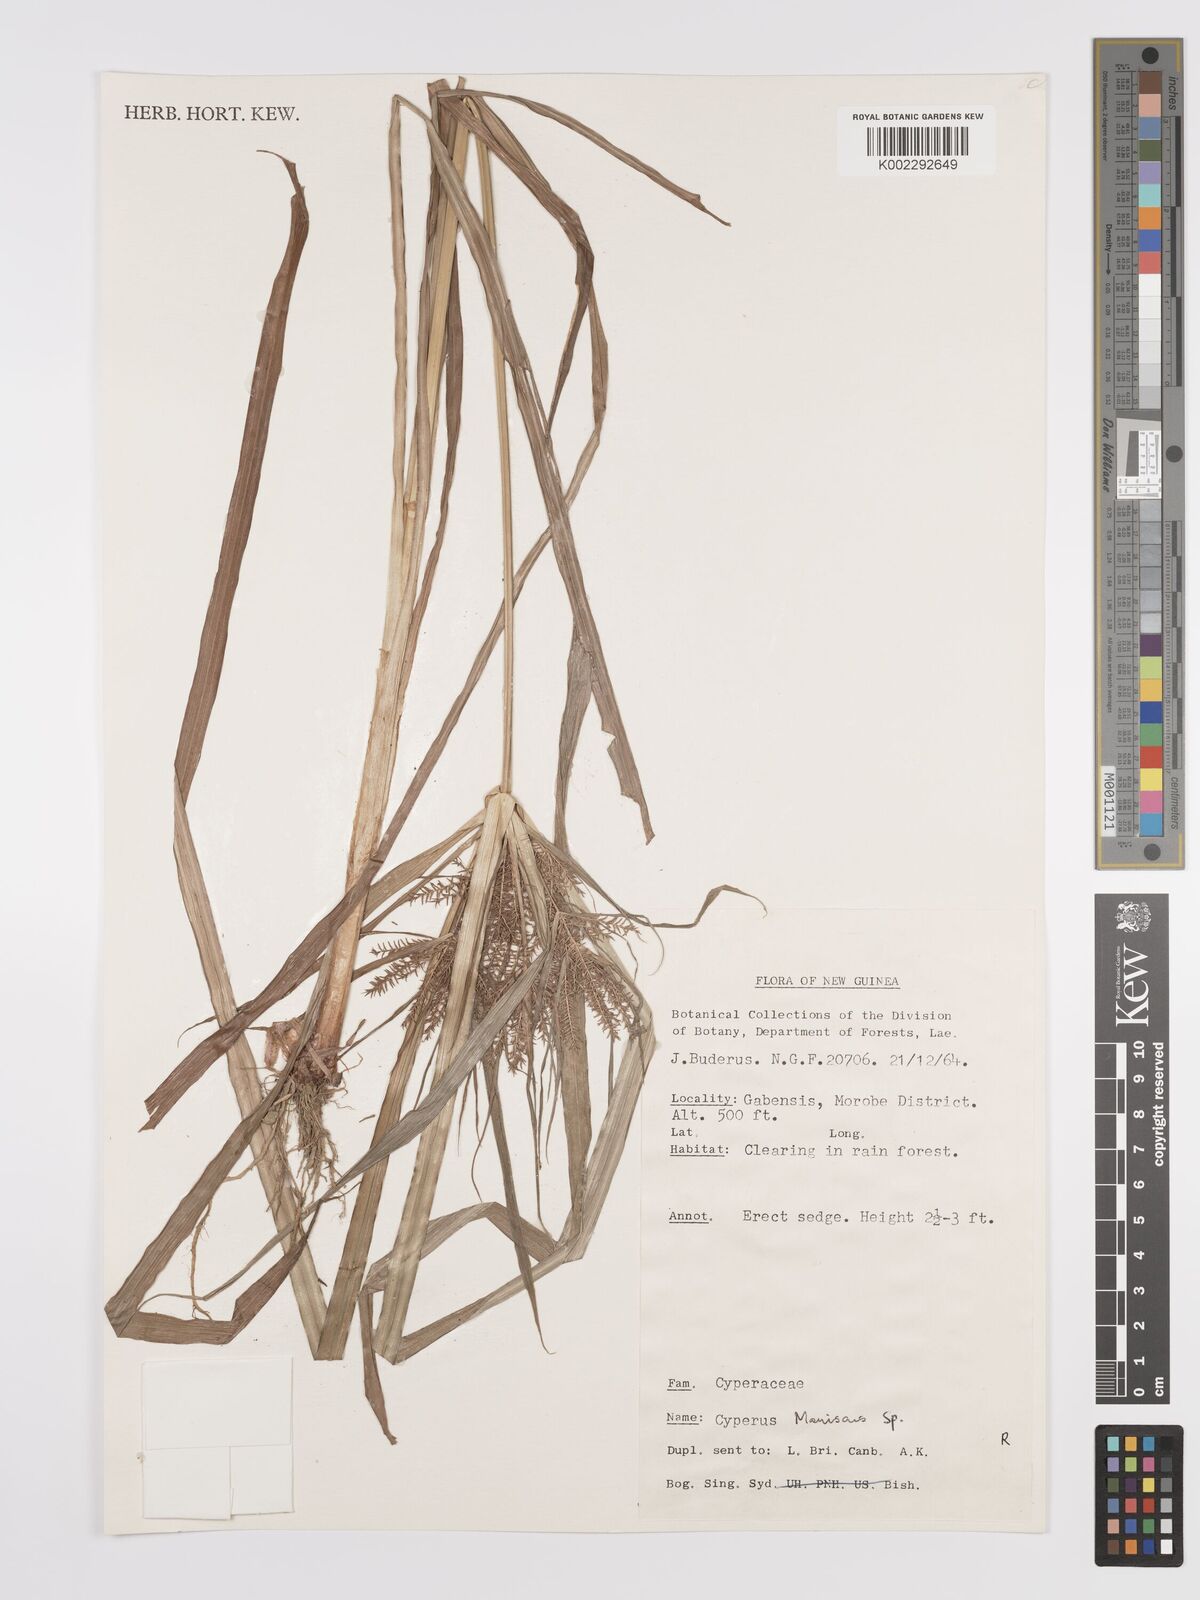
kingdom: Plantae
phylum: Tracheophyta
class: Liliopsida
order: Poales
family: Cyperaceae
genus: Cyperus
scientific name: Cyperus
